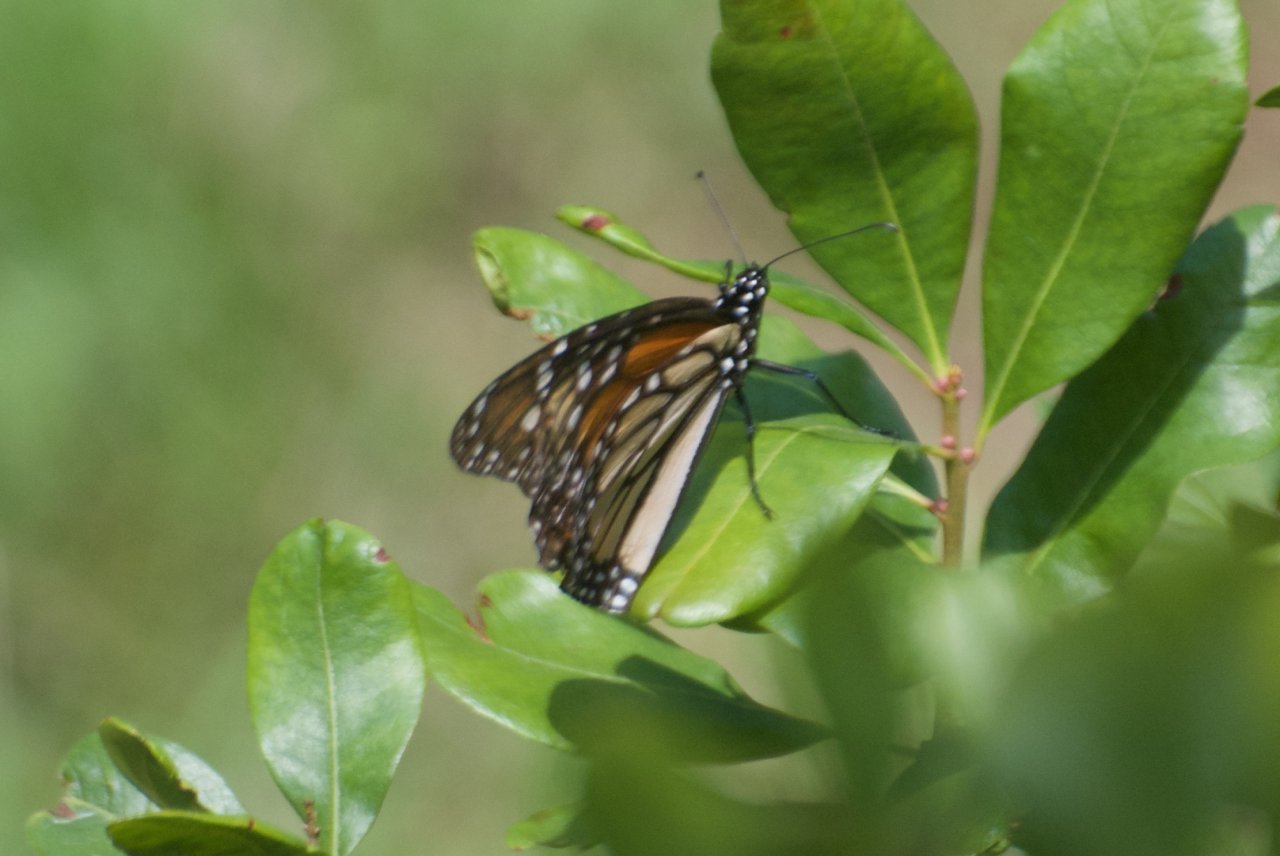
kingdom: Animalia
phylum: Arthropoda
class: Insecta
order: Lepidoptera
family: Nymphalidae
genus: Danaus
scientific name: Danaus plexippus
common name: Monarch
